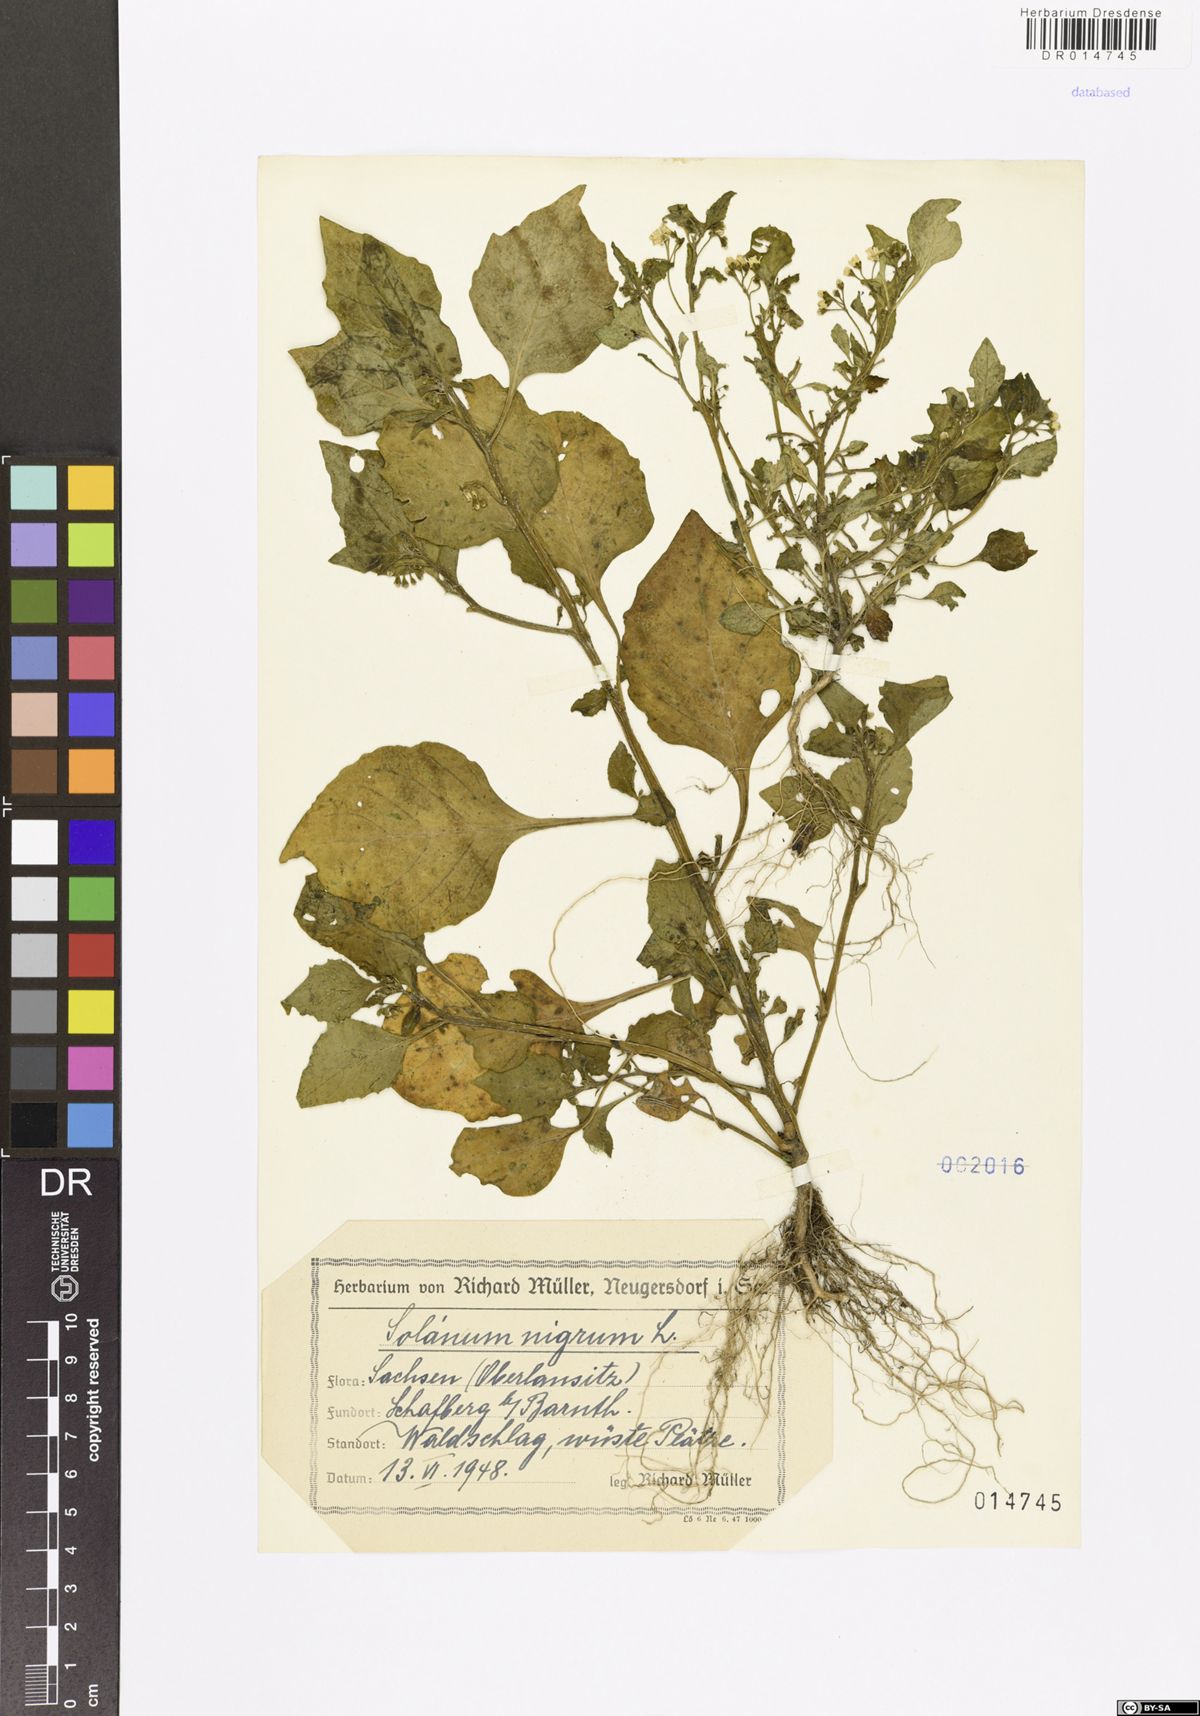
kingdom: Plantae
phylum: Tracheophyta
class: Magnoliopsida
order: Solanales
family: Solanaceae
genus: Solanum
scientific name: Solanum nigrum
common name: Black nightshade
